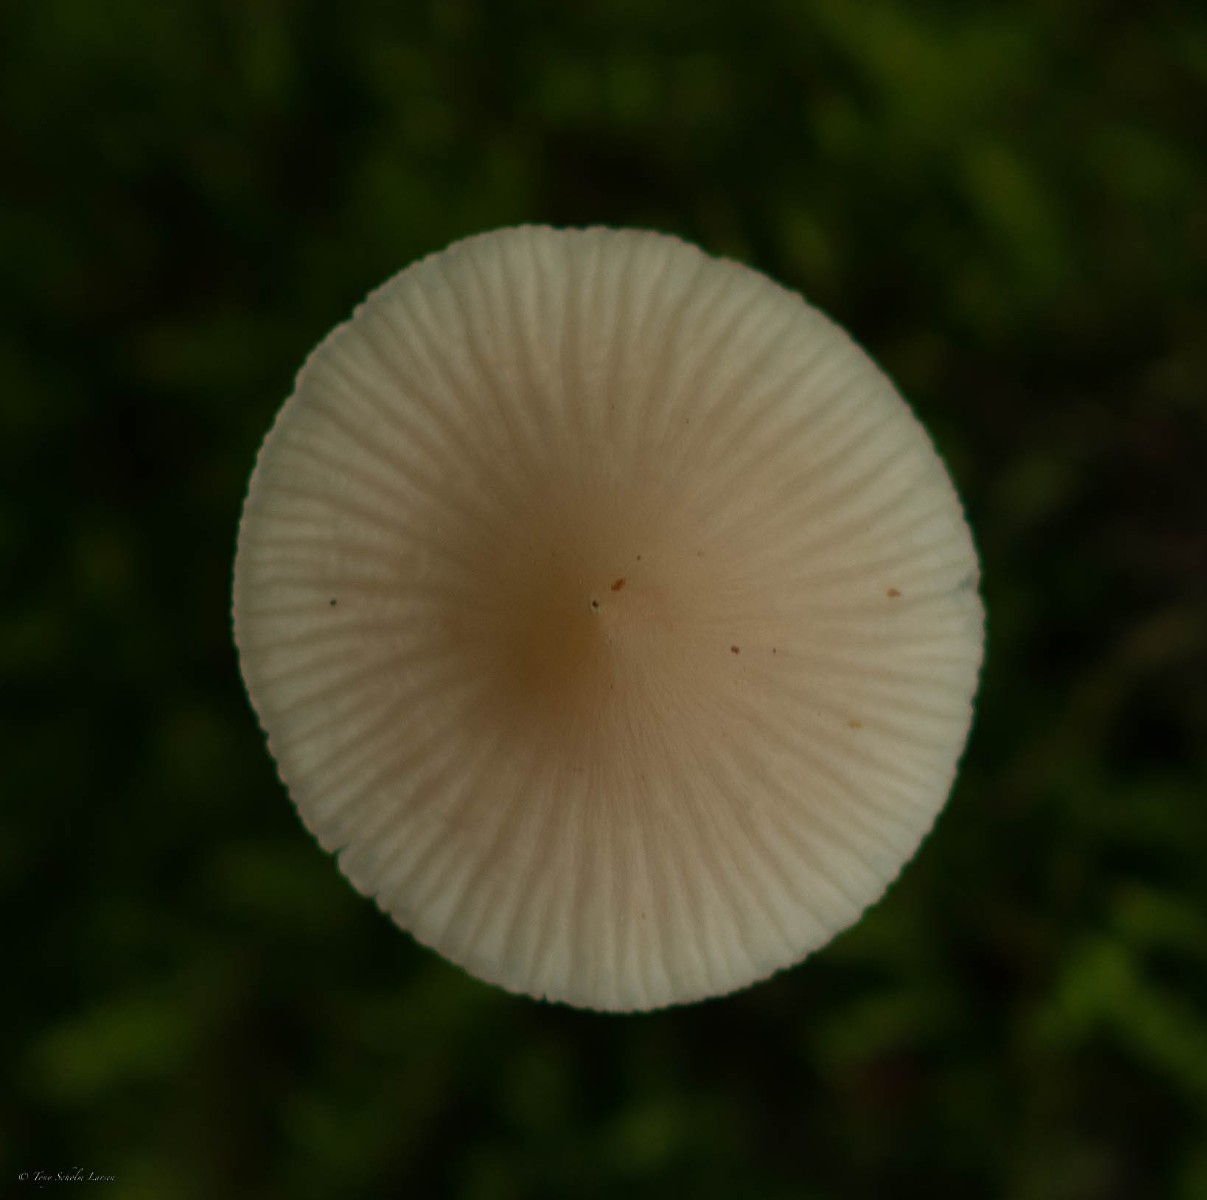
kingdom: Fungi
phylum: Basidiomycota
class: Agaricomycetes
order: Agaricales
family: Mycenaceae
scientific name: Mycenaceae
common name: huesvampfamilien
